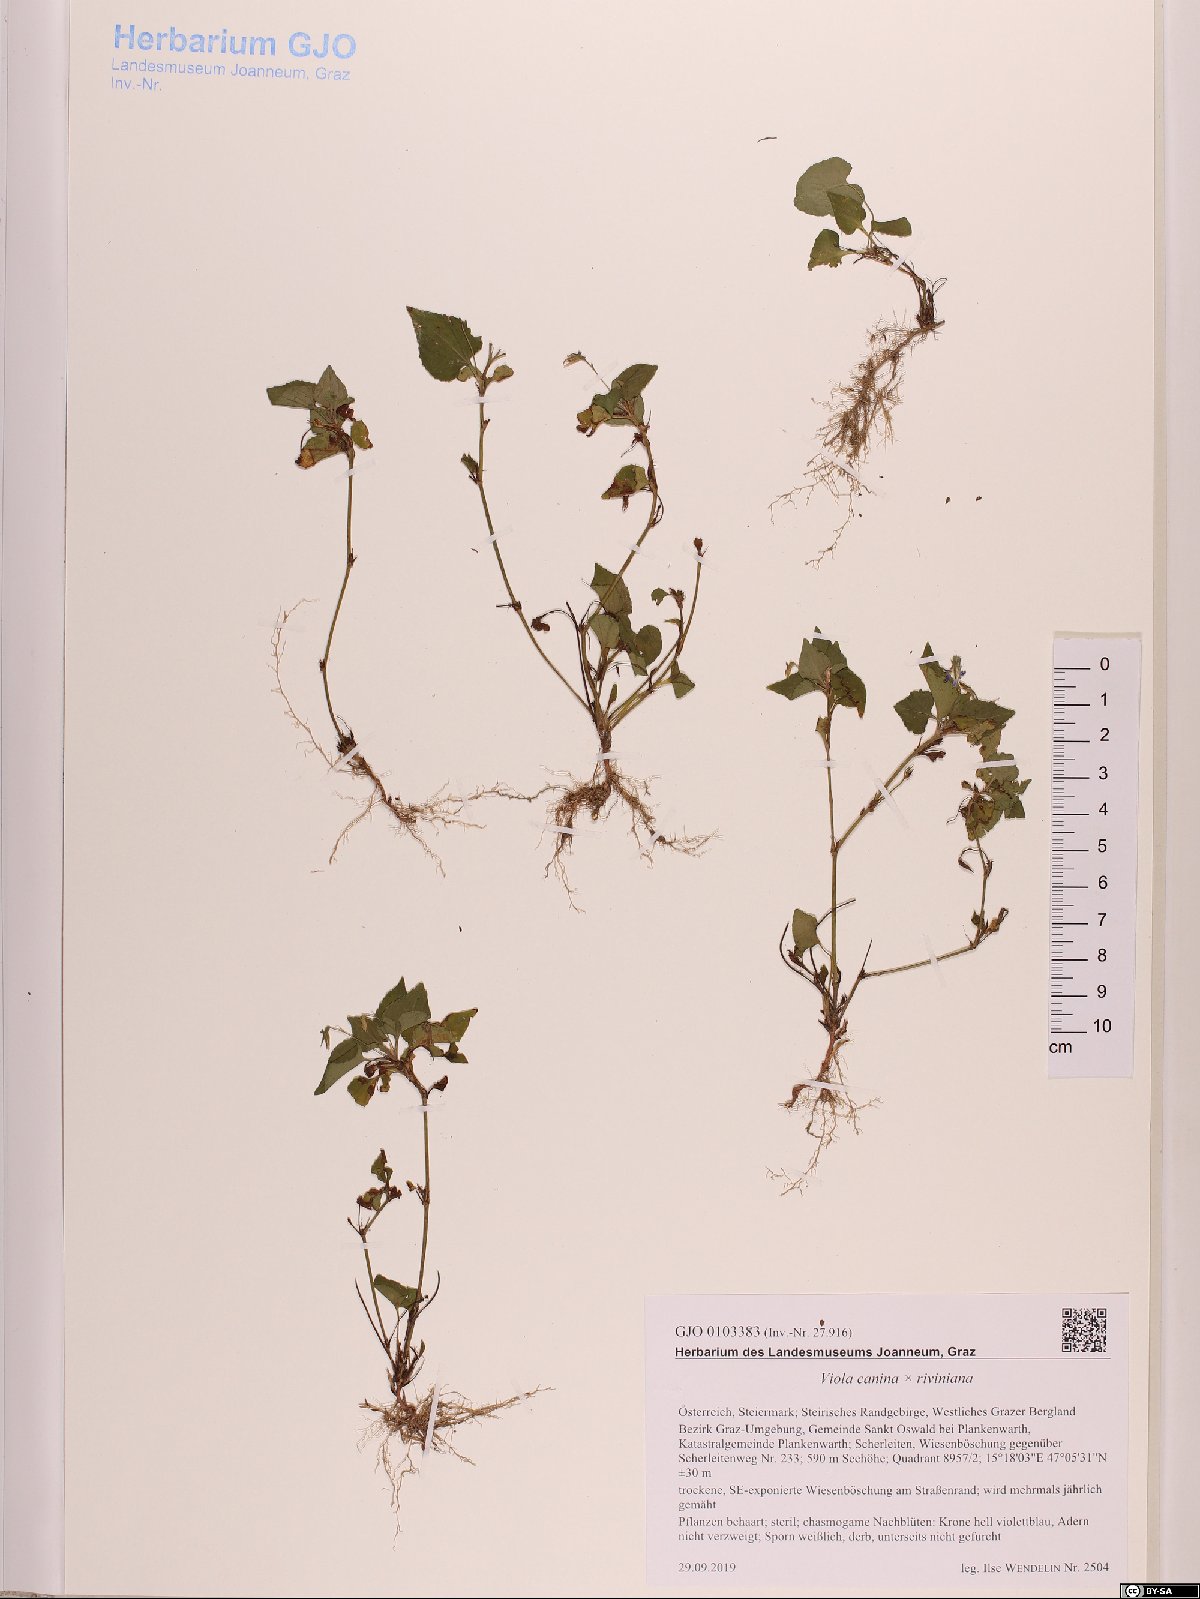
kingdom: Plantae
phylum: Tracheophyta
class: Magnoliopsida
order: Malpighiales
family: Violaceae
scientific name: Violaceae
